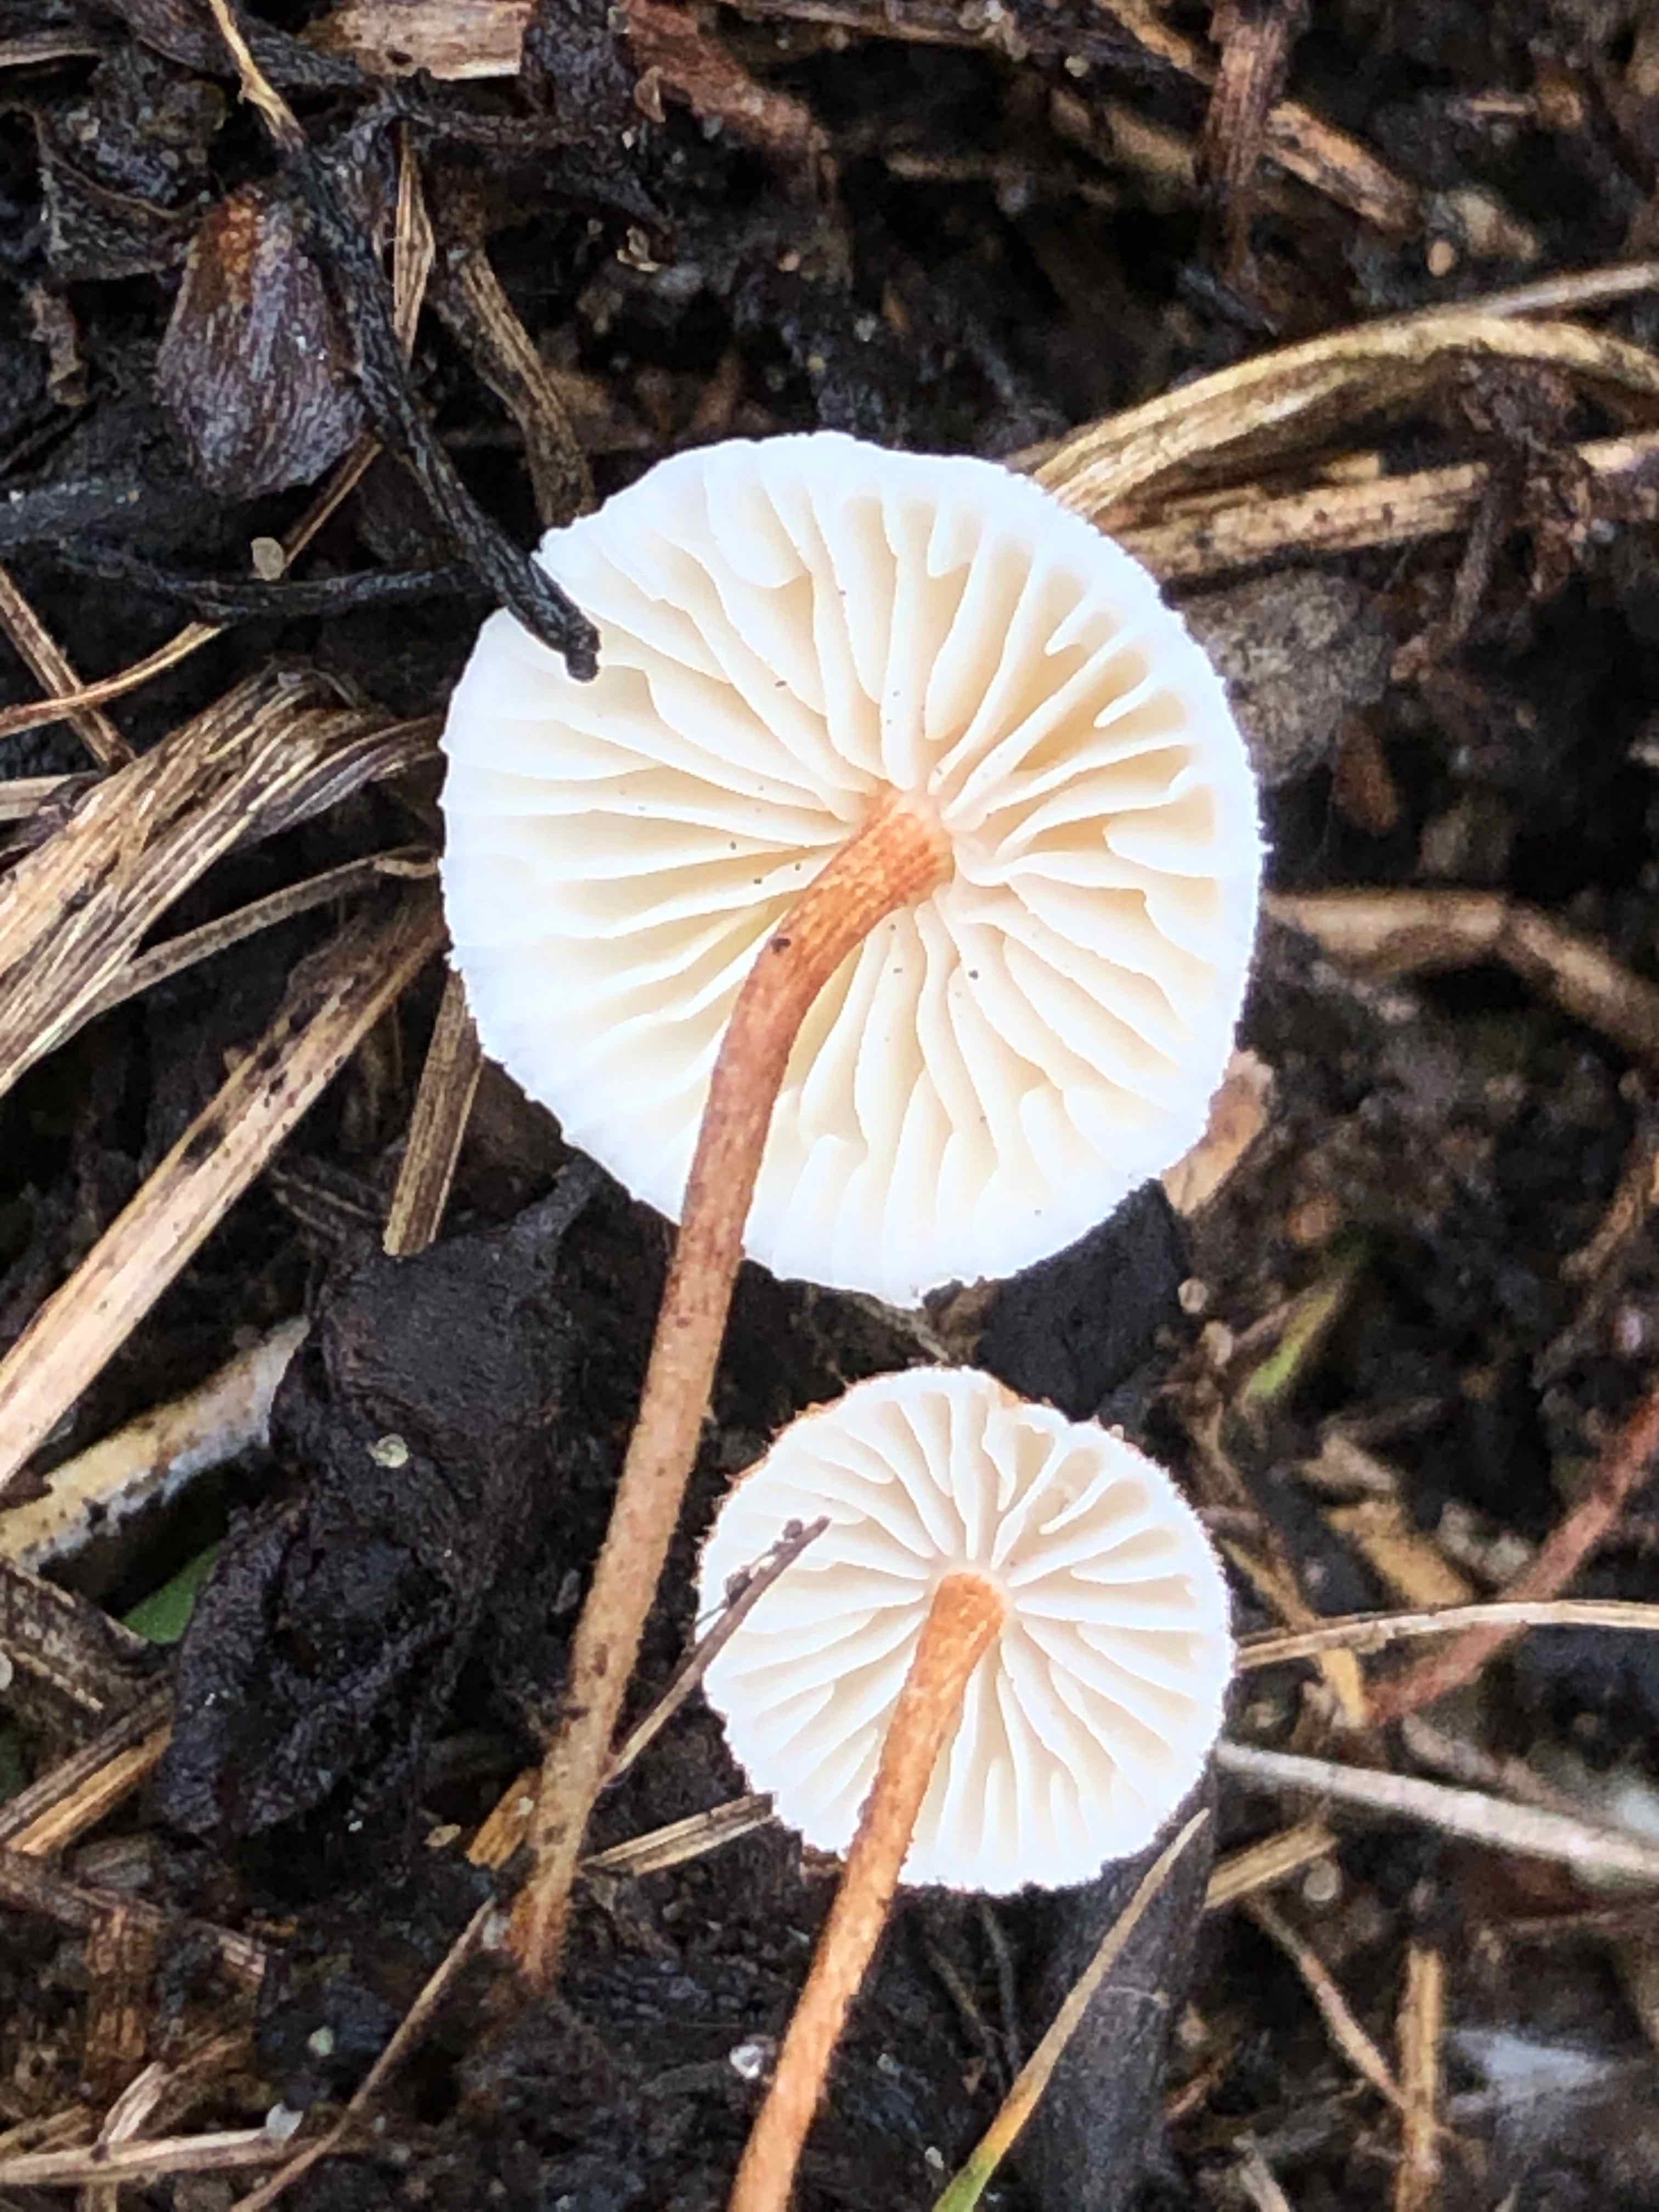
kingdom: Fungi
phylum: Basidiomycota
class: Agaricomycetes
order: Agaricales
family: Marasmiaceae
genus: Crinipellis
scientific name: Crinipellis scabella
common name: børstefod
